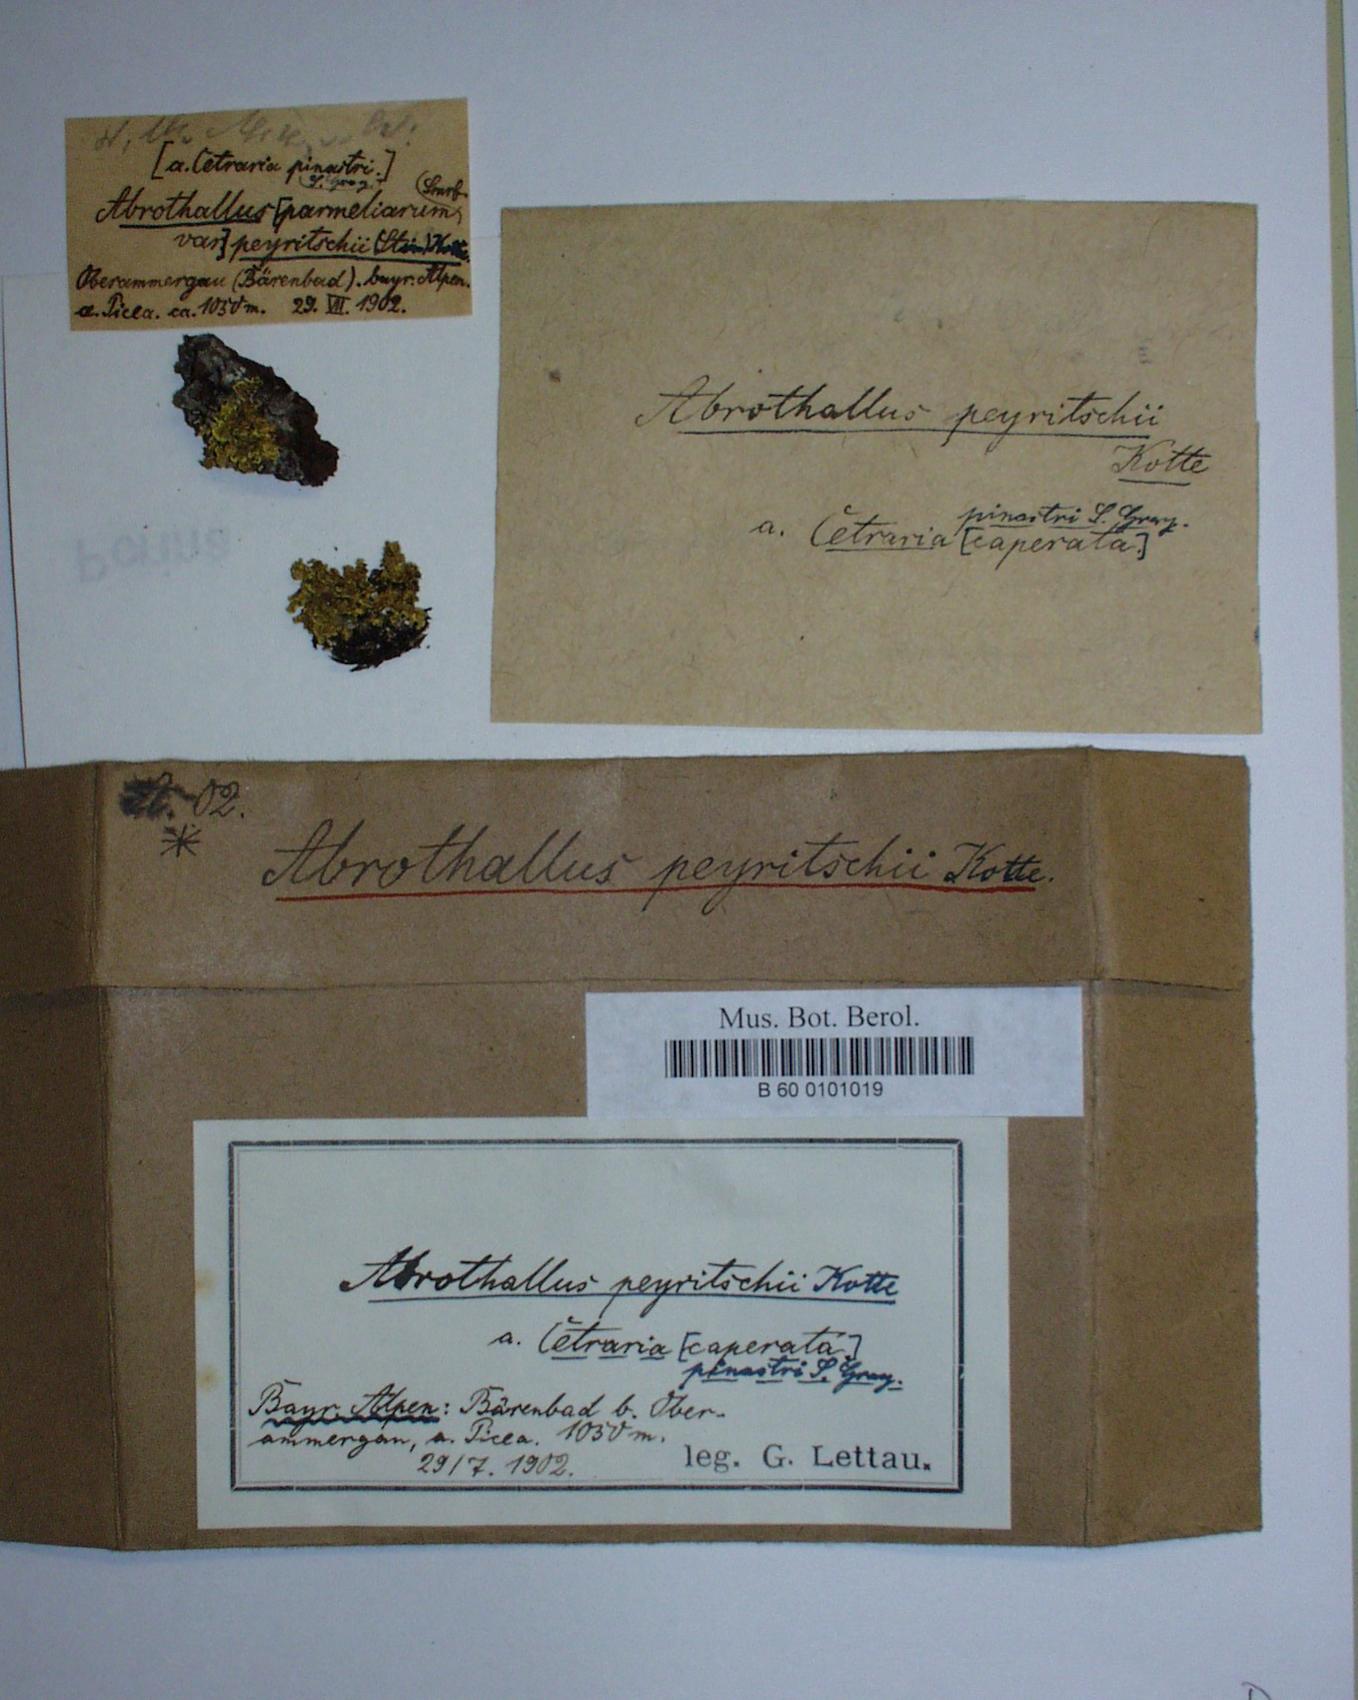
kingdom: Fungi
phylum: Ascomycota
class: Dothideomycetes
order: Abrothallales
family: Abrothallaceae
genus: Abrothallus
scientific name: Abrothallus peyritschii
